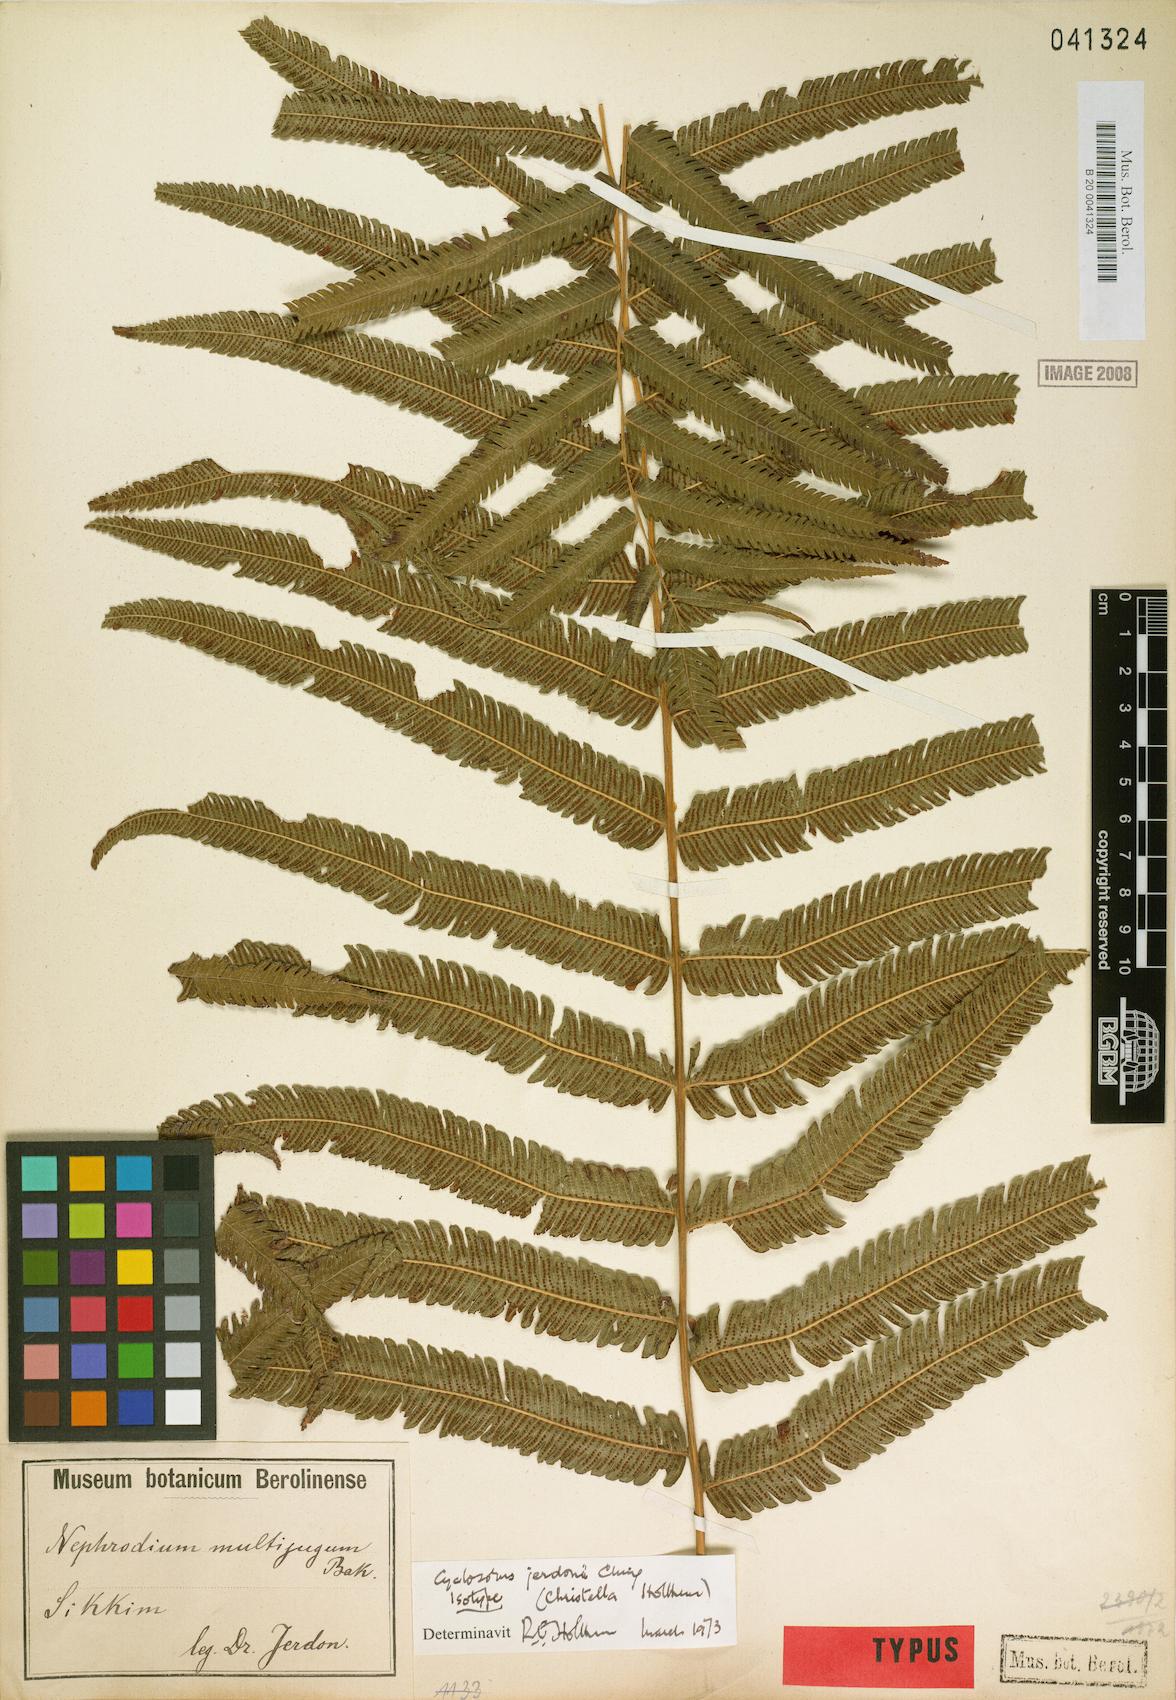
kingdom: Plantae
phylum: Tracheophyta
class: Polypodiopsida
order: Polypodiales
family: Thelypteridaceae
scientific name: Thelypteridaceae
